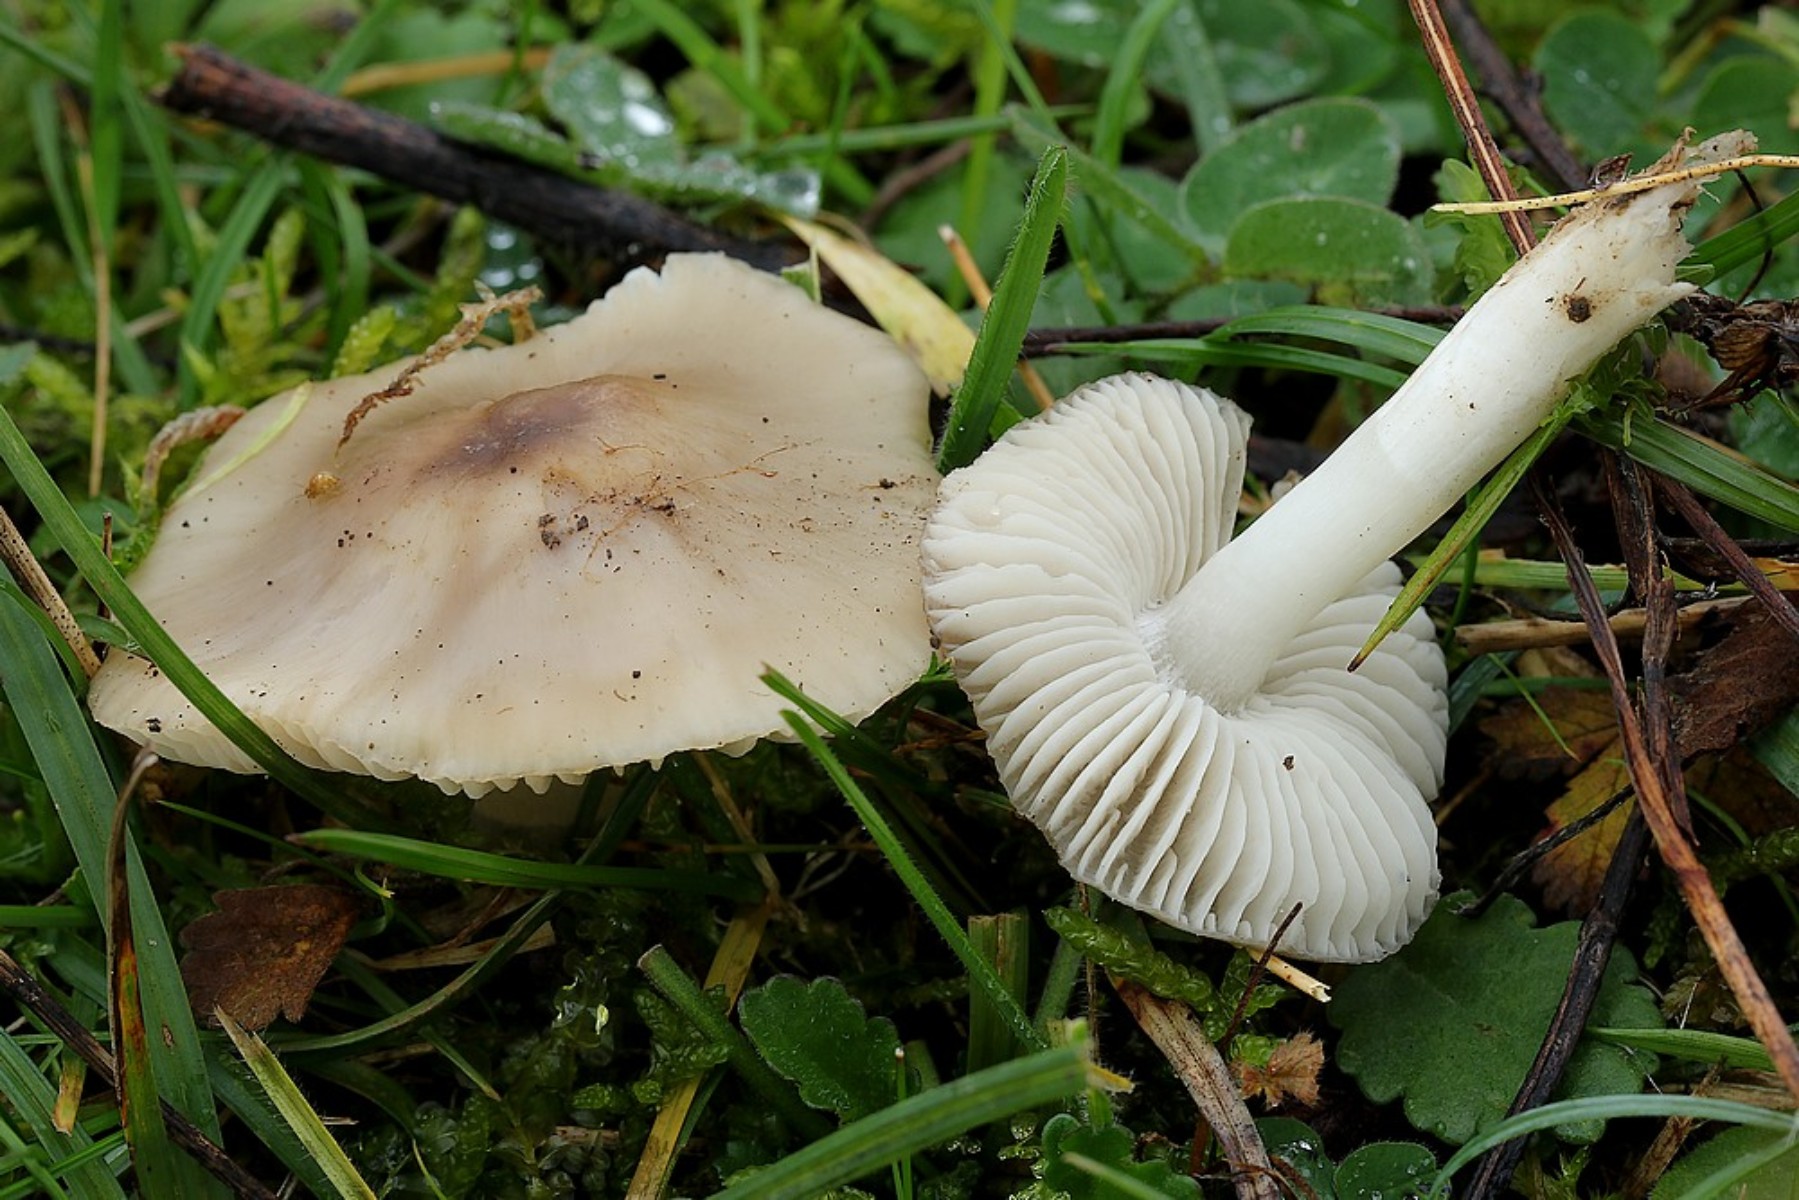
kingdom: Fungi
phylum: Basidiomycota
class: Agaricomycetes
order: Agaricales
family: Hygrophoraceae
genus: Cuphophyllus
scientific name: Cuphophyllus fornicatus
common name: gråbrun vokshat
